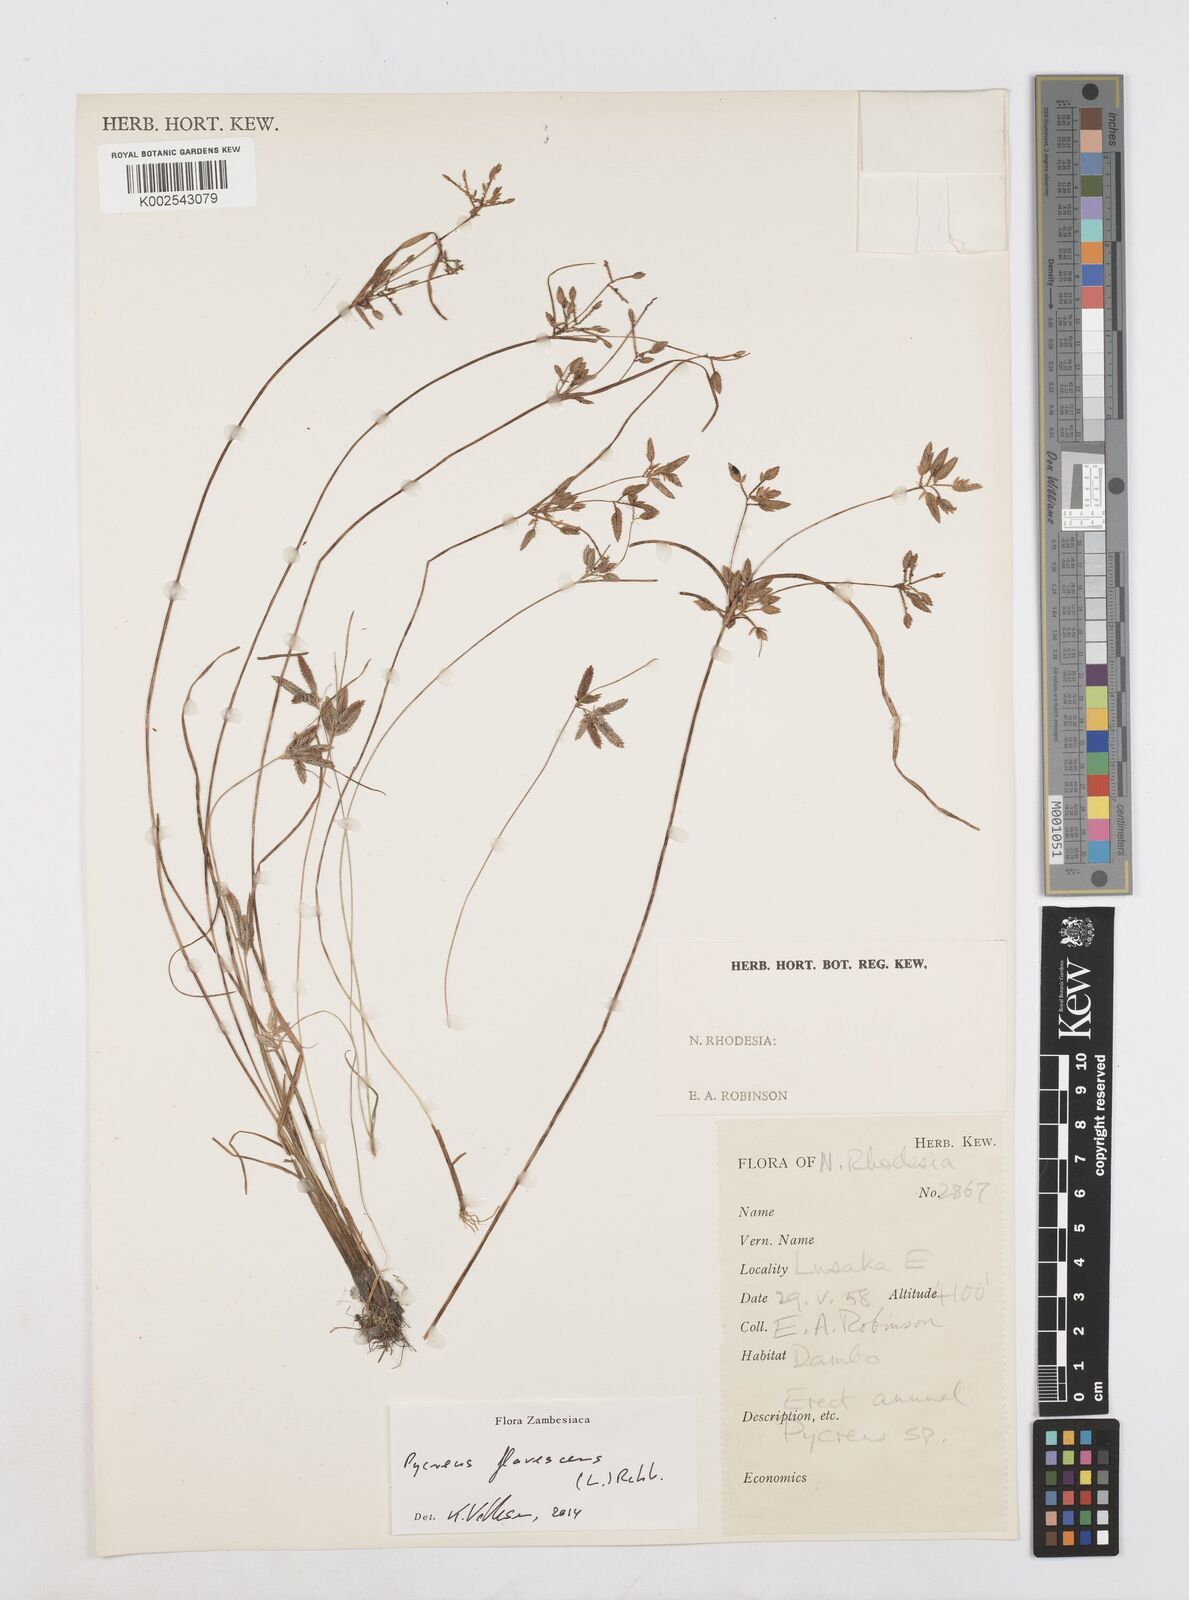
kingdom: Plantae
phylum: Tracheophyta
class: Liliopsida
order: Poales
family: Cyperaceae
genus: Cyperus
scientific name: Cyperus flavescens
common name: Yellow galingale
